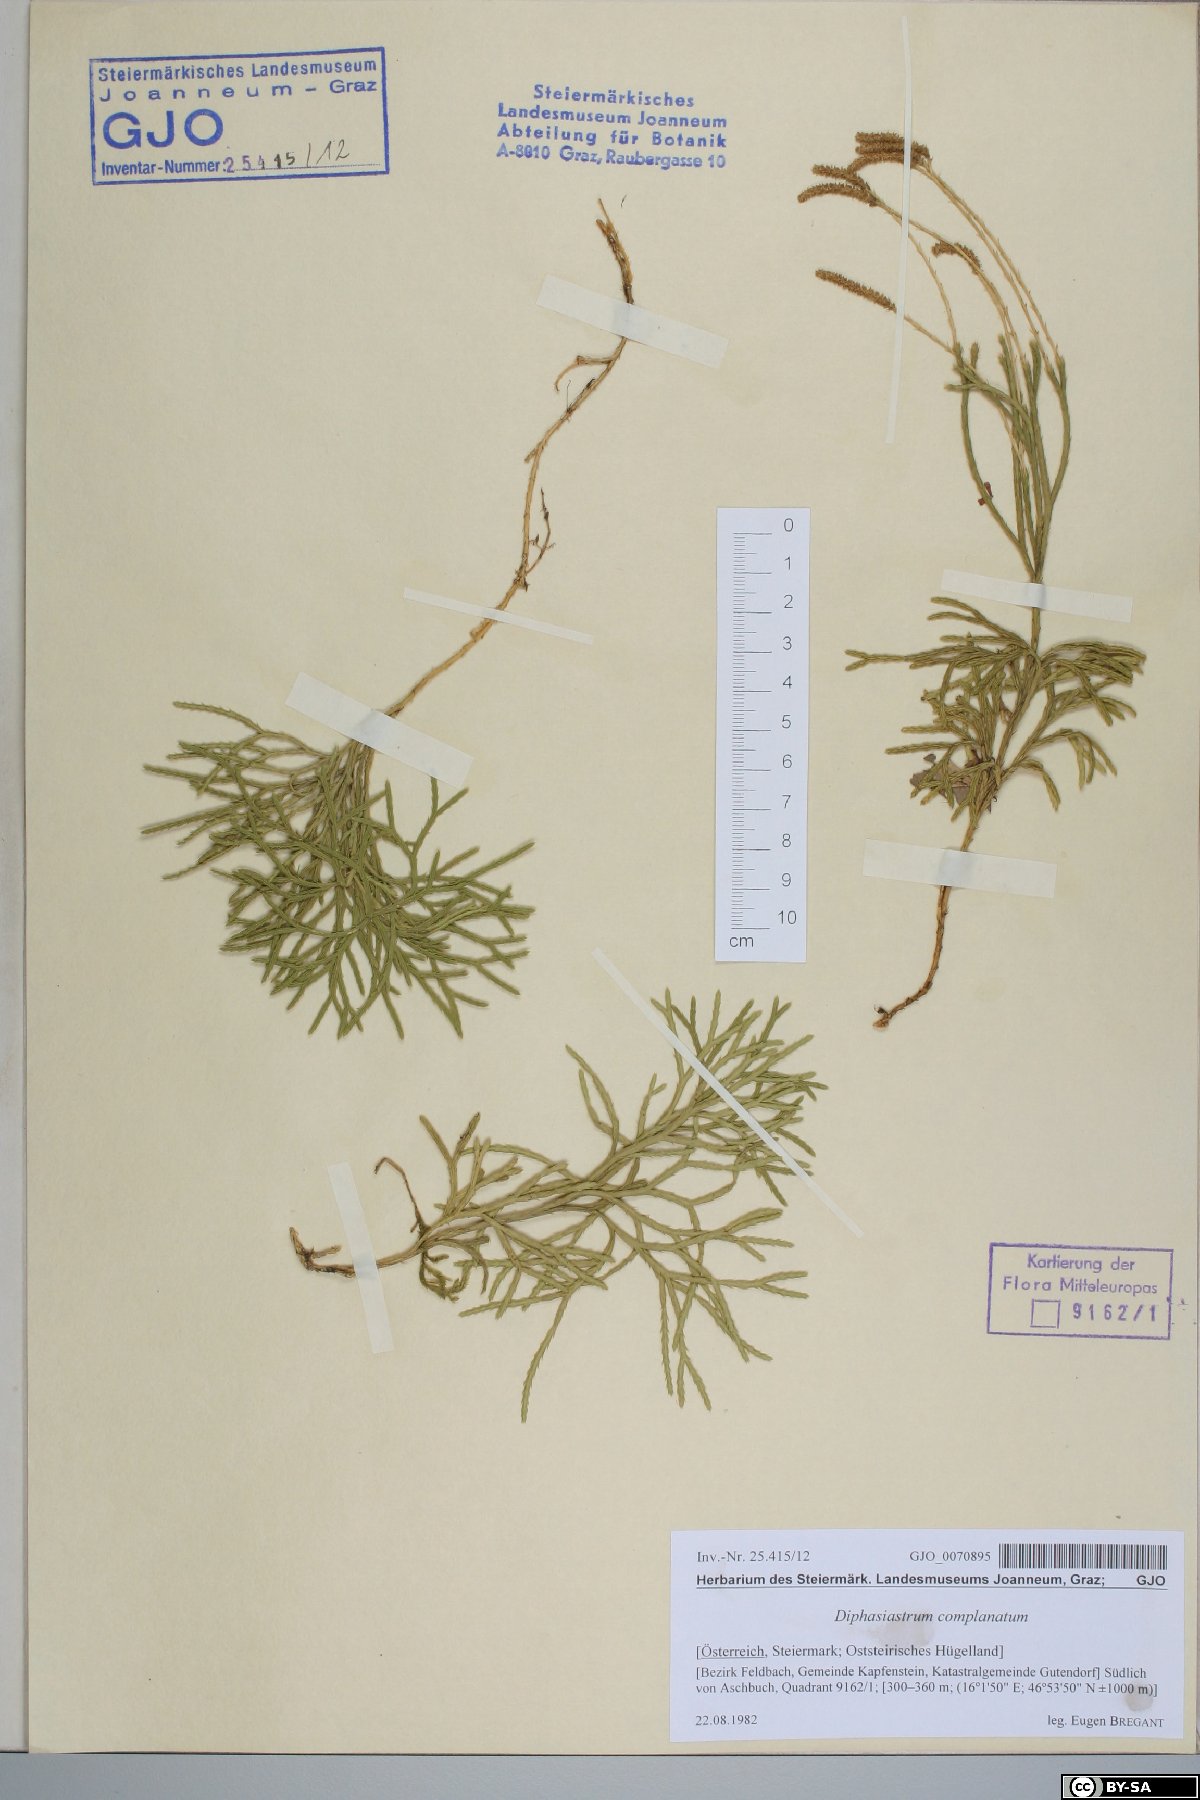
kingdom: Plantae
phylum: Tracheophyta
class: Lycopodiopsida
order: Lycopodiales
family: Lycopodiaceae
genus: Diphasiastrum
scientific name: Diphasiastrum complanatum
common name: Northern running-pine
